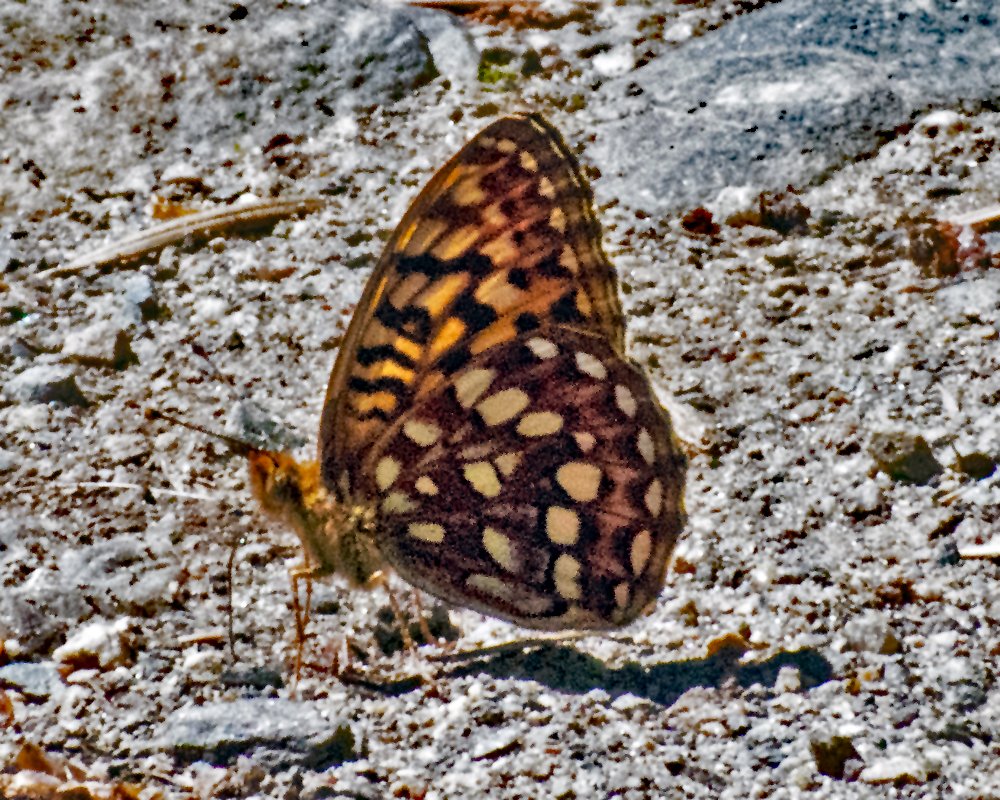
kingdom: Animalia
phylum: Arthropoda
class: Insecta
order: Lepidoptera
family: Nymphalidae
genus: Speyeria
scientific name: Speyeria hydaspe
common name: Hydaspe Fritillary
